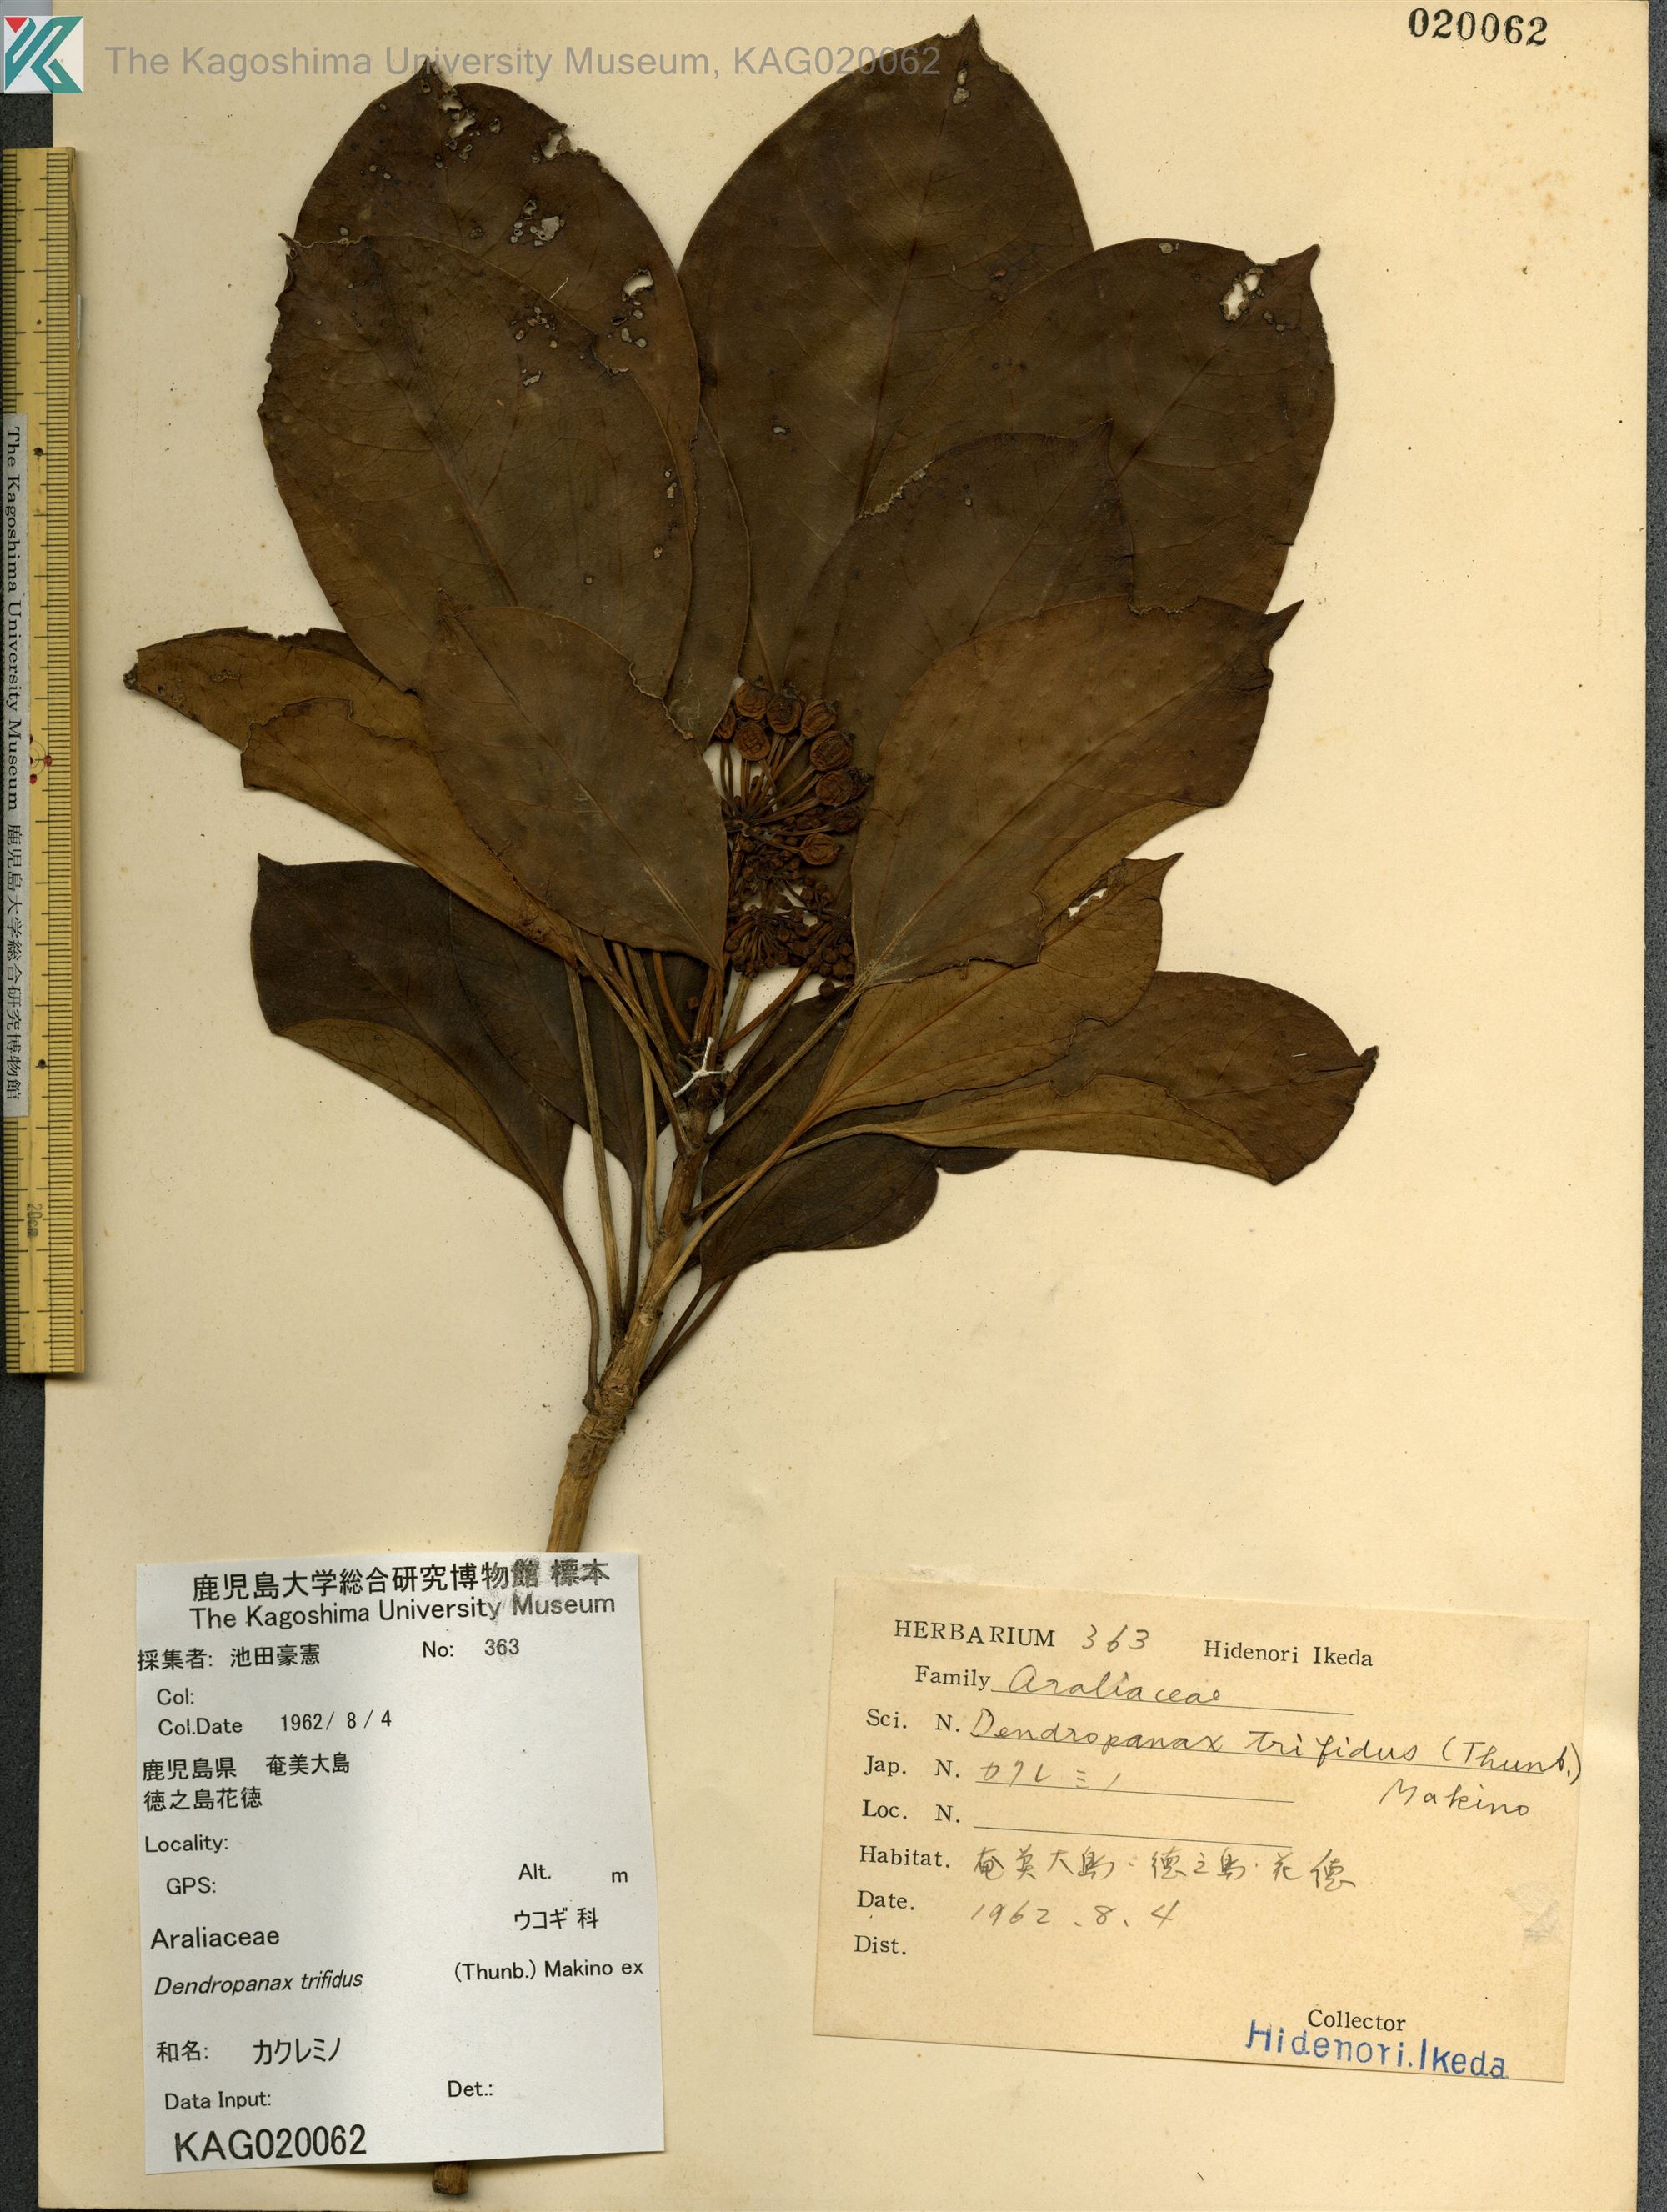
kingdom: Plantae
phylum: Tracheophyta
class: Magnoliopsida
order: Apiales
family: Araliaceae
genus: Dendropanax
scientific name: Dendropanax trifidus
